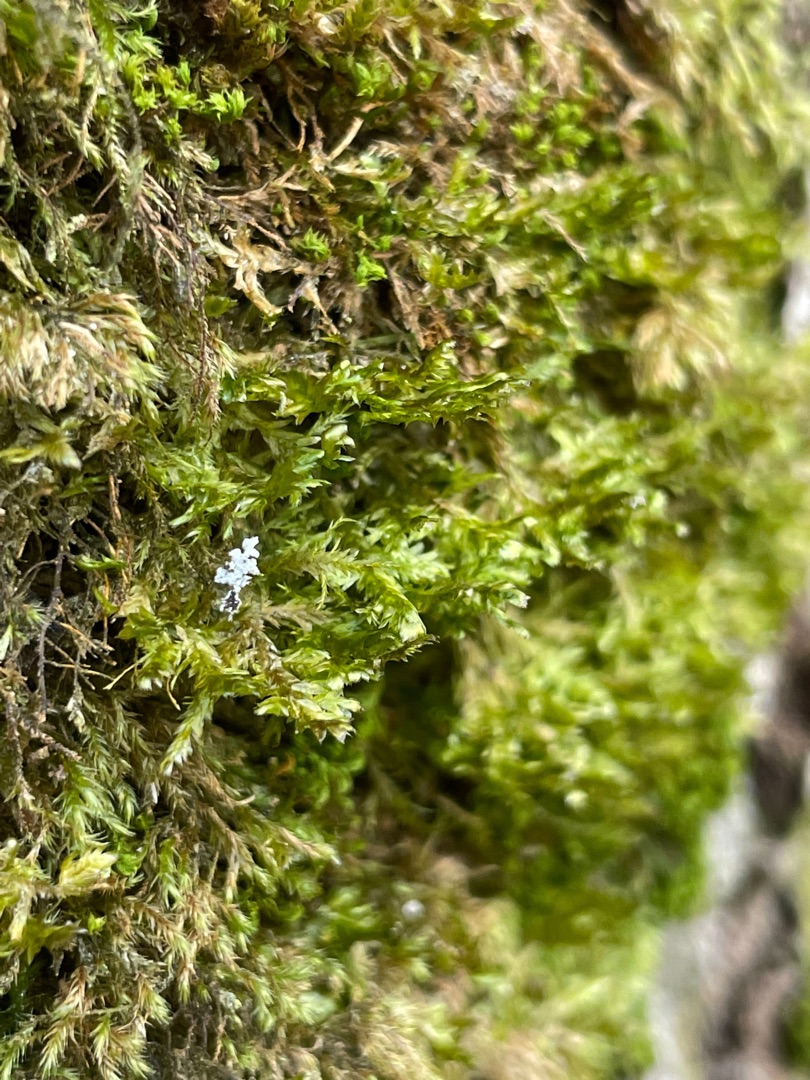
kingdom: Plantae
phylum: Bryophyta
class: Bryopsida
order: Hypnales
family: Neckeraceae
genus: Alleniella
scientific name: Alleniella complanata
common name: Almindelig fladmos
